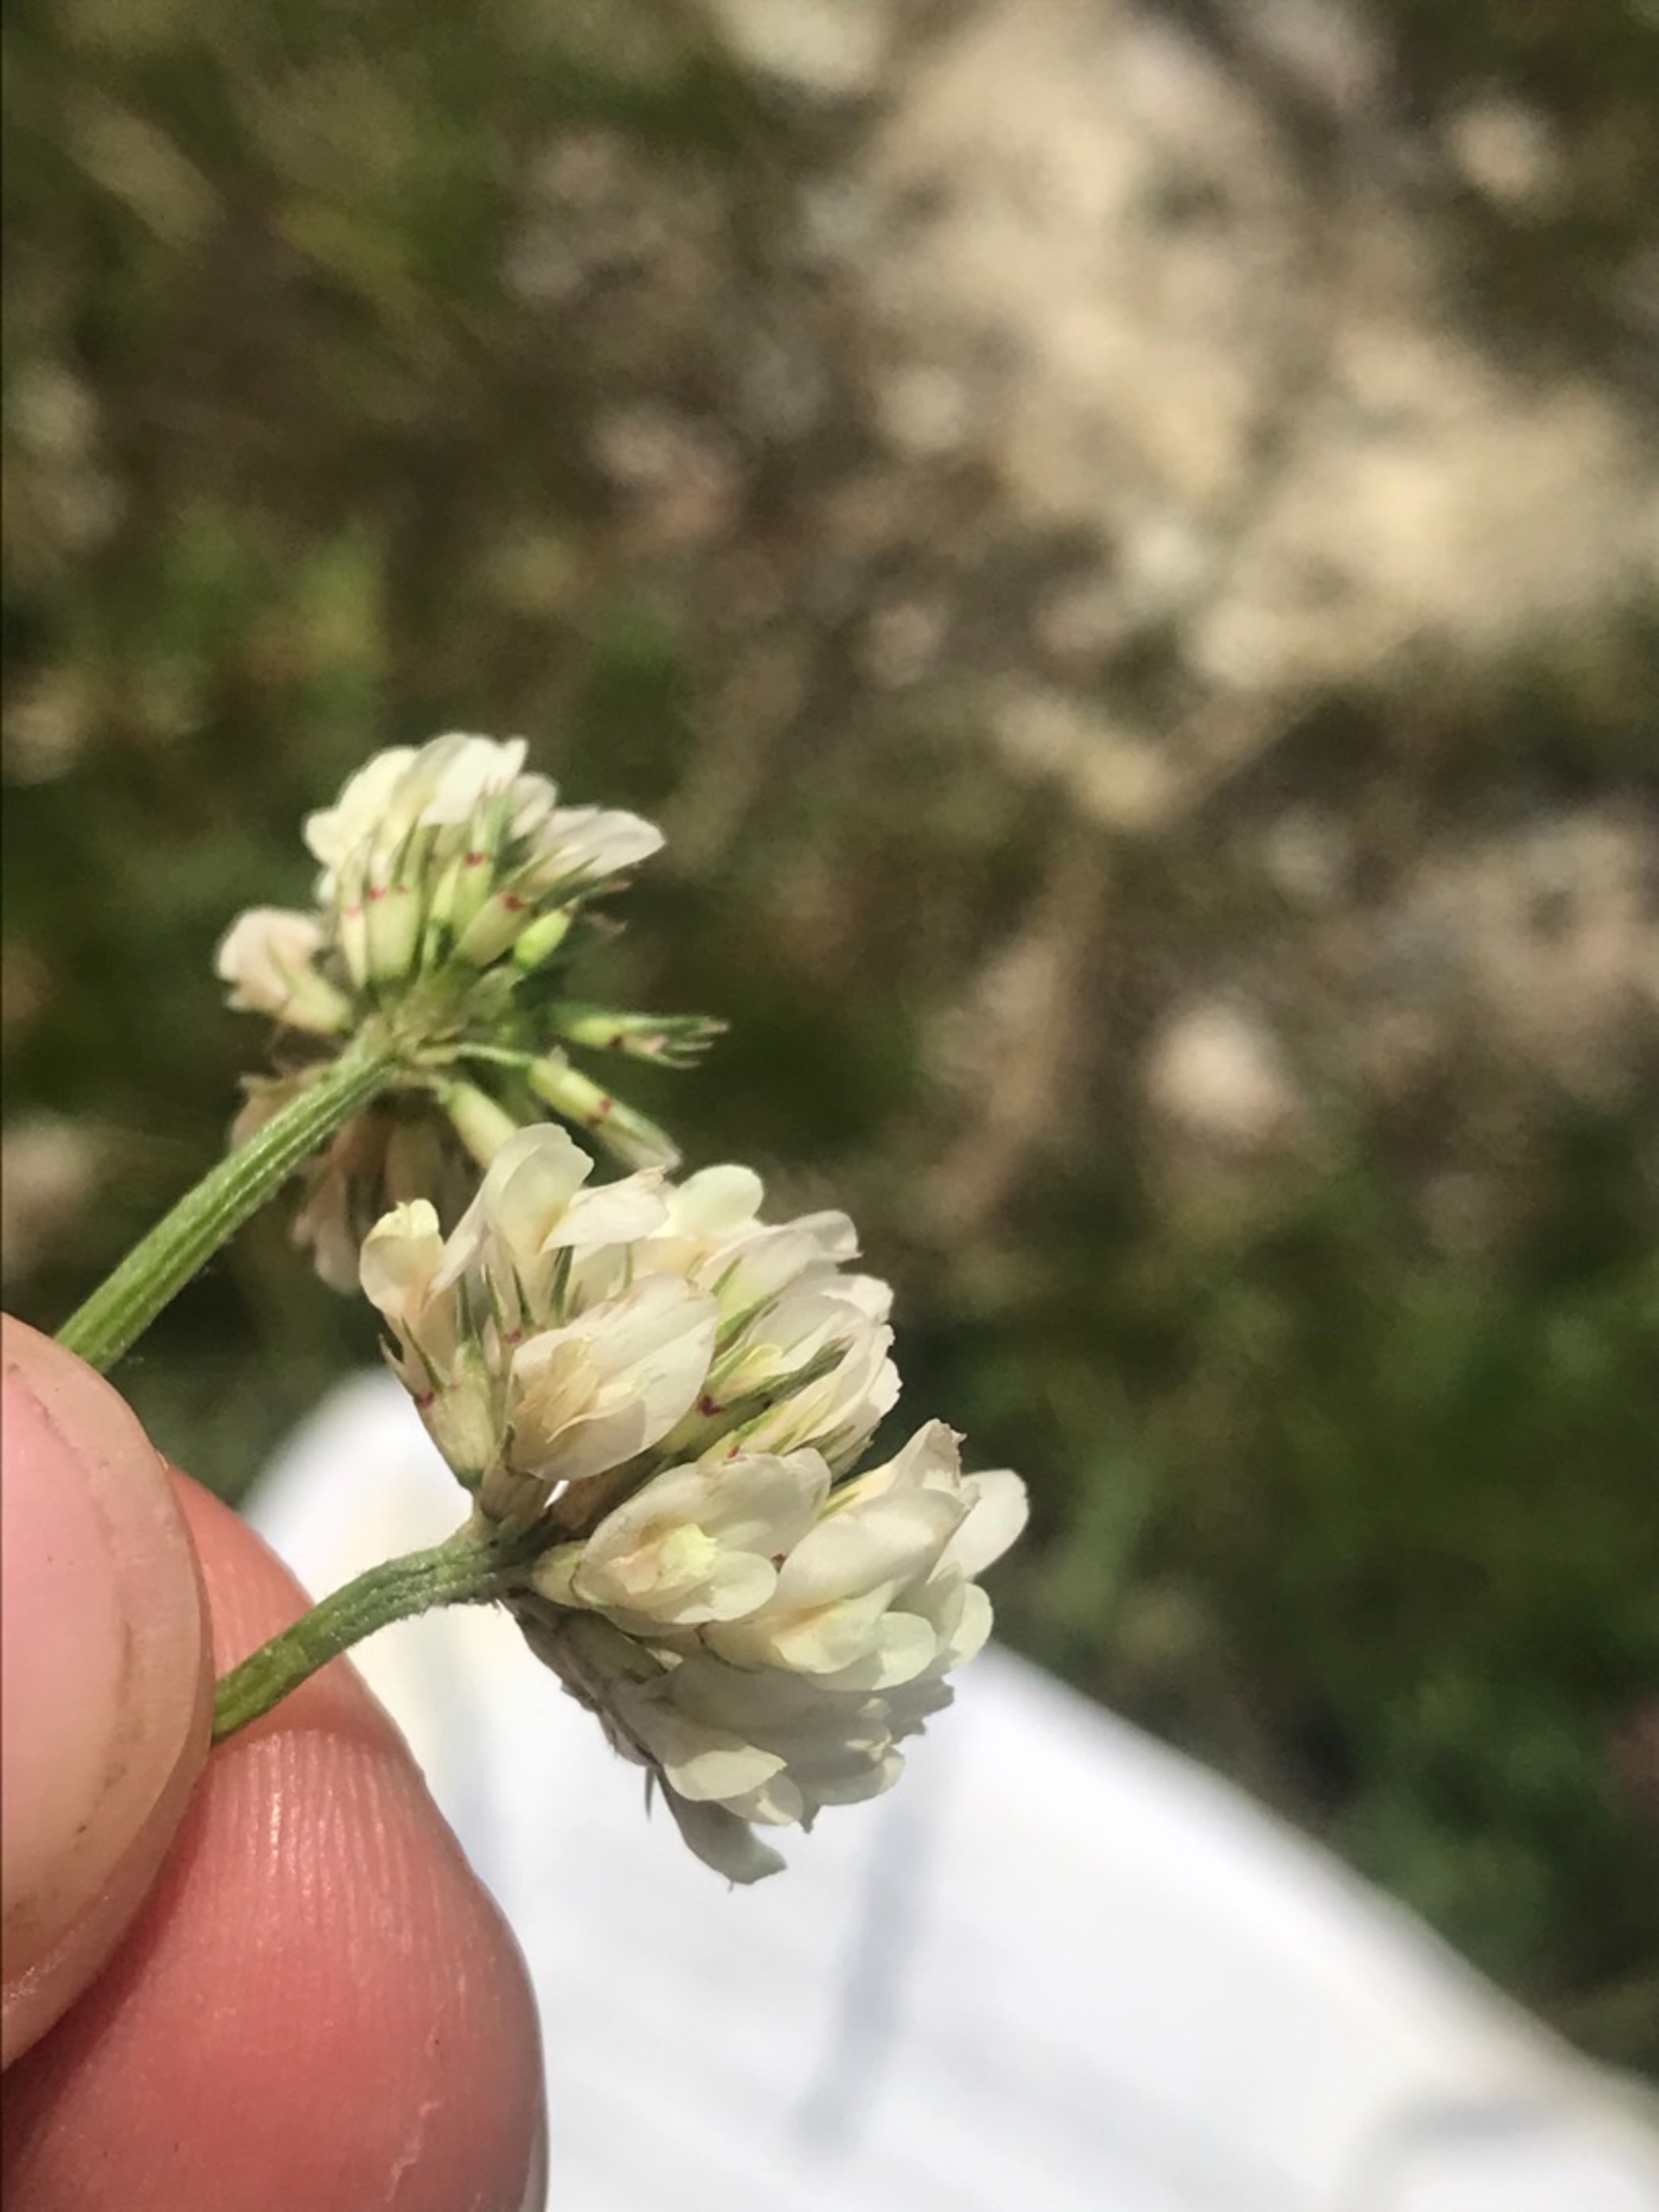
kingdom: Plantae
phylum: Tracheophyta
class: Magnoliopsida
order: Fabales
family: Fabaceae
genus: Trifolium
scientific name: Trifolium repens
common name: Hvid-kløver
